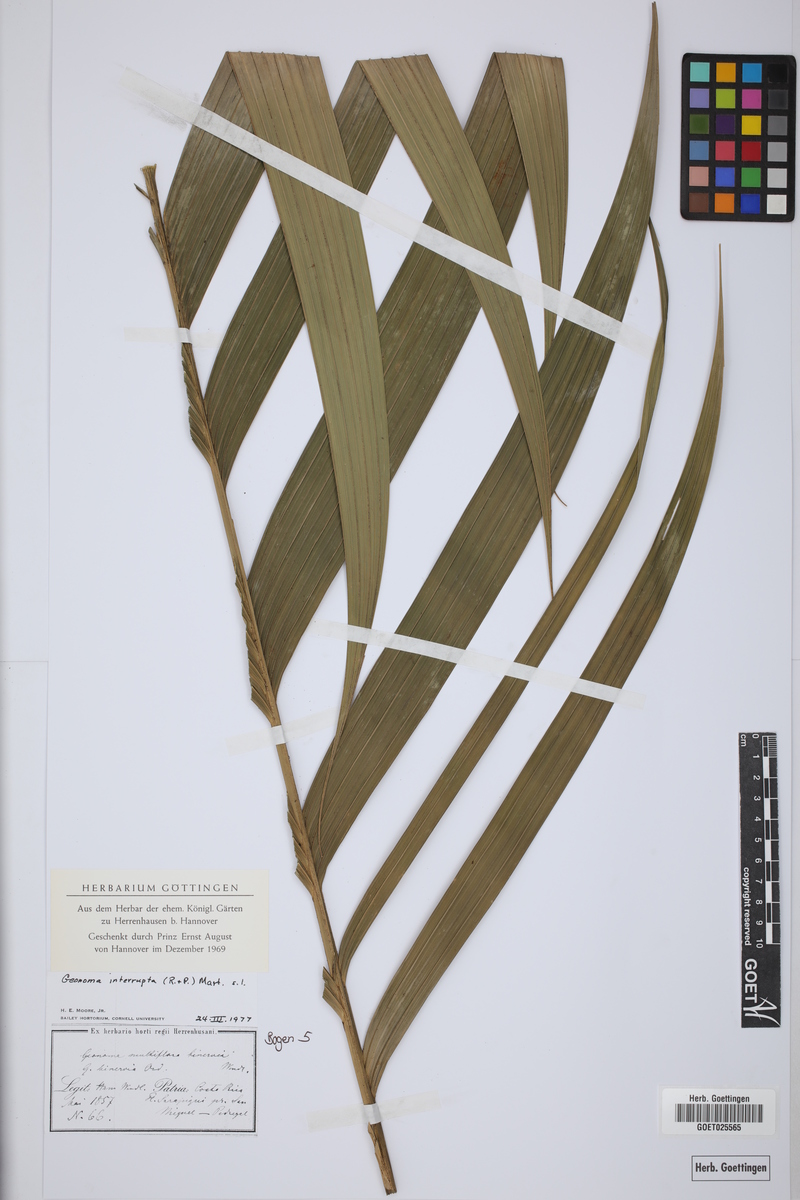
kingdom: Plantae
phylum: Tracheophyta
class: Liliopsida
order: Arecales
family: Arecaceae
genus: Geonoma
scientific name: Geonoma interrupta
